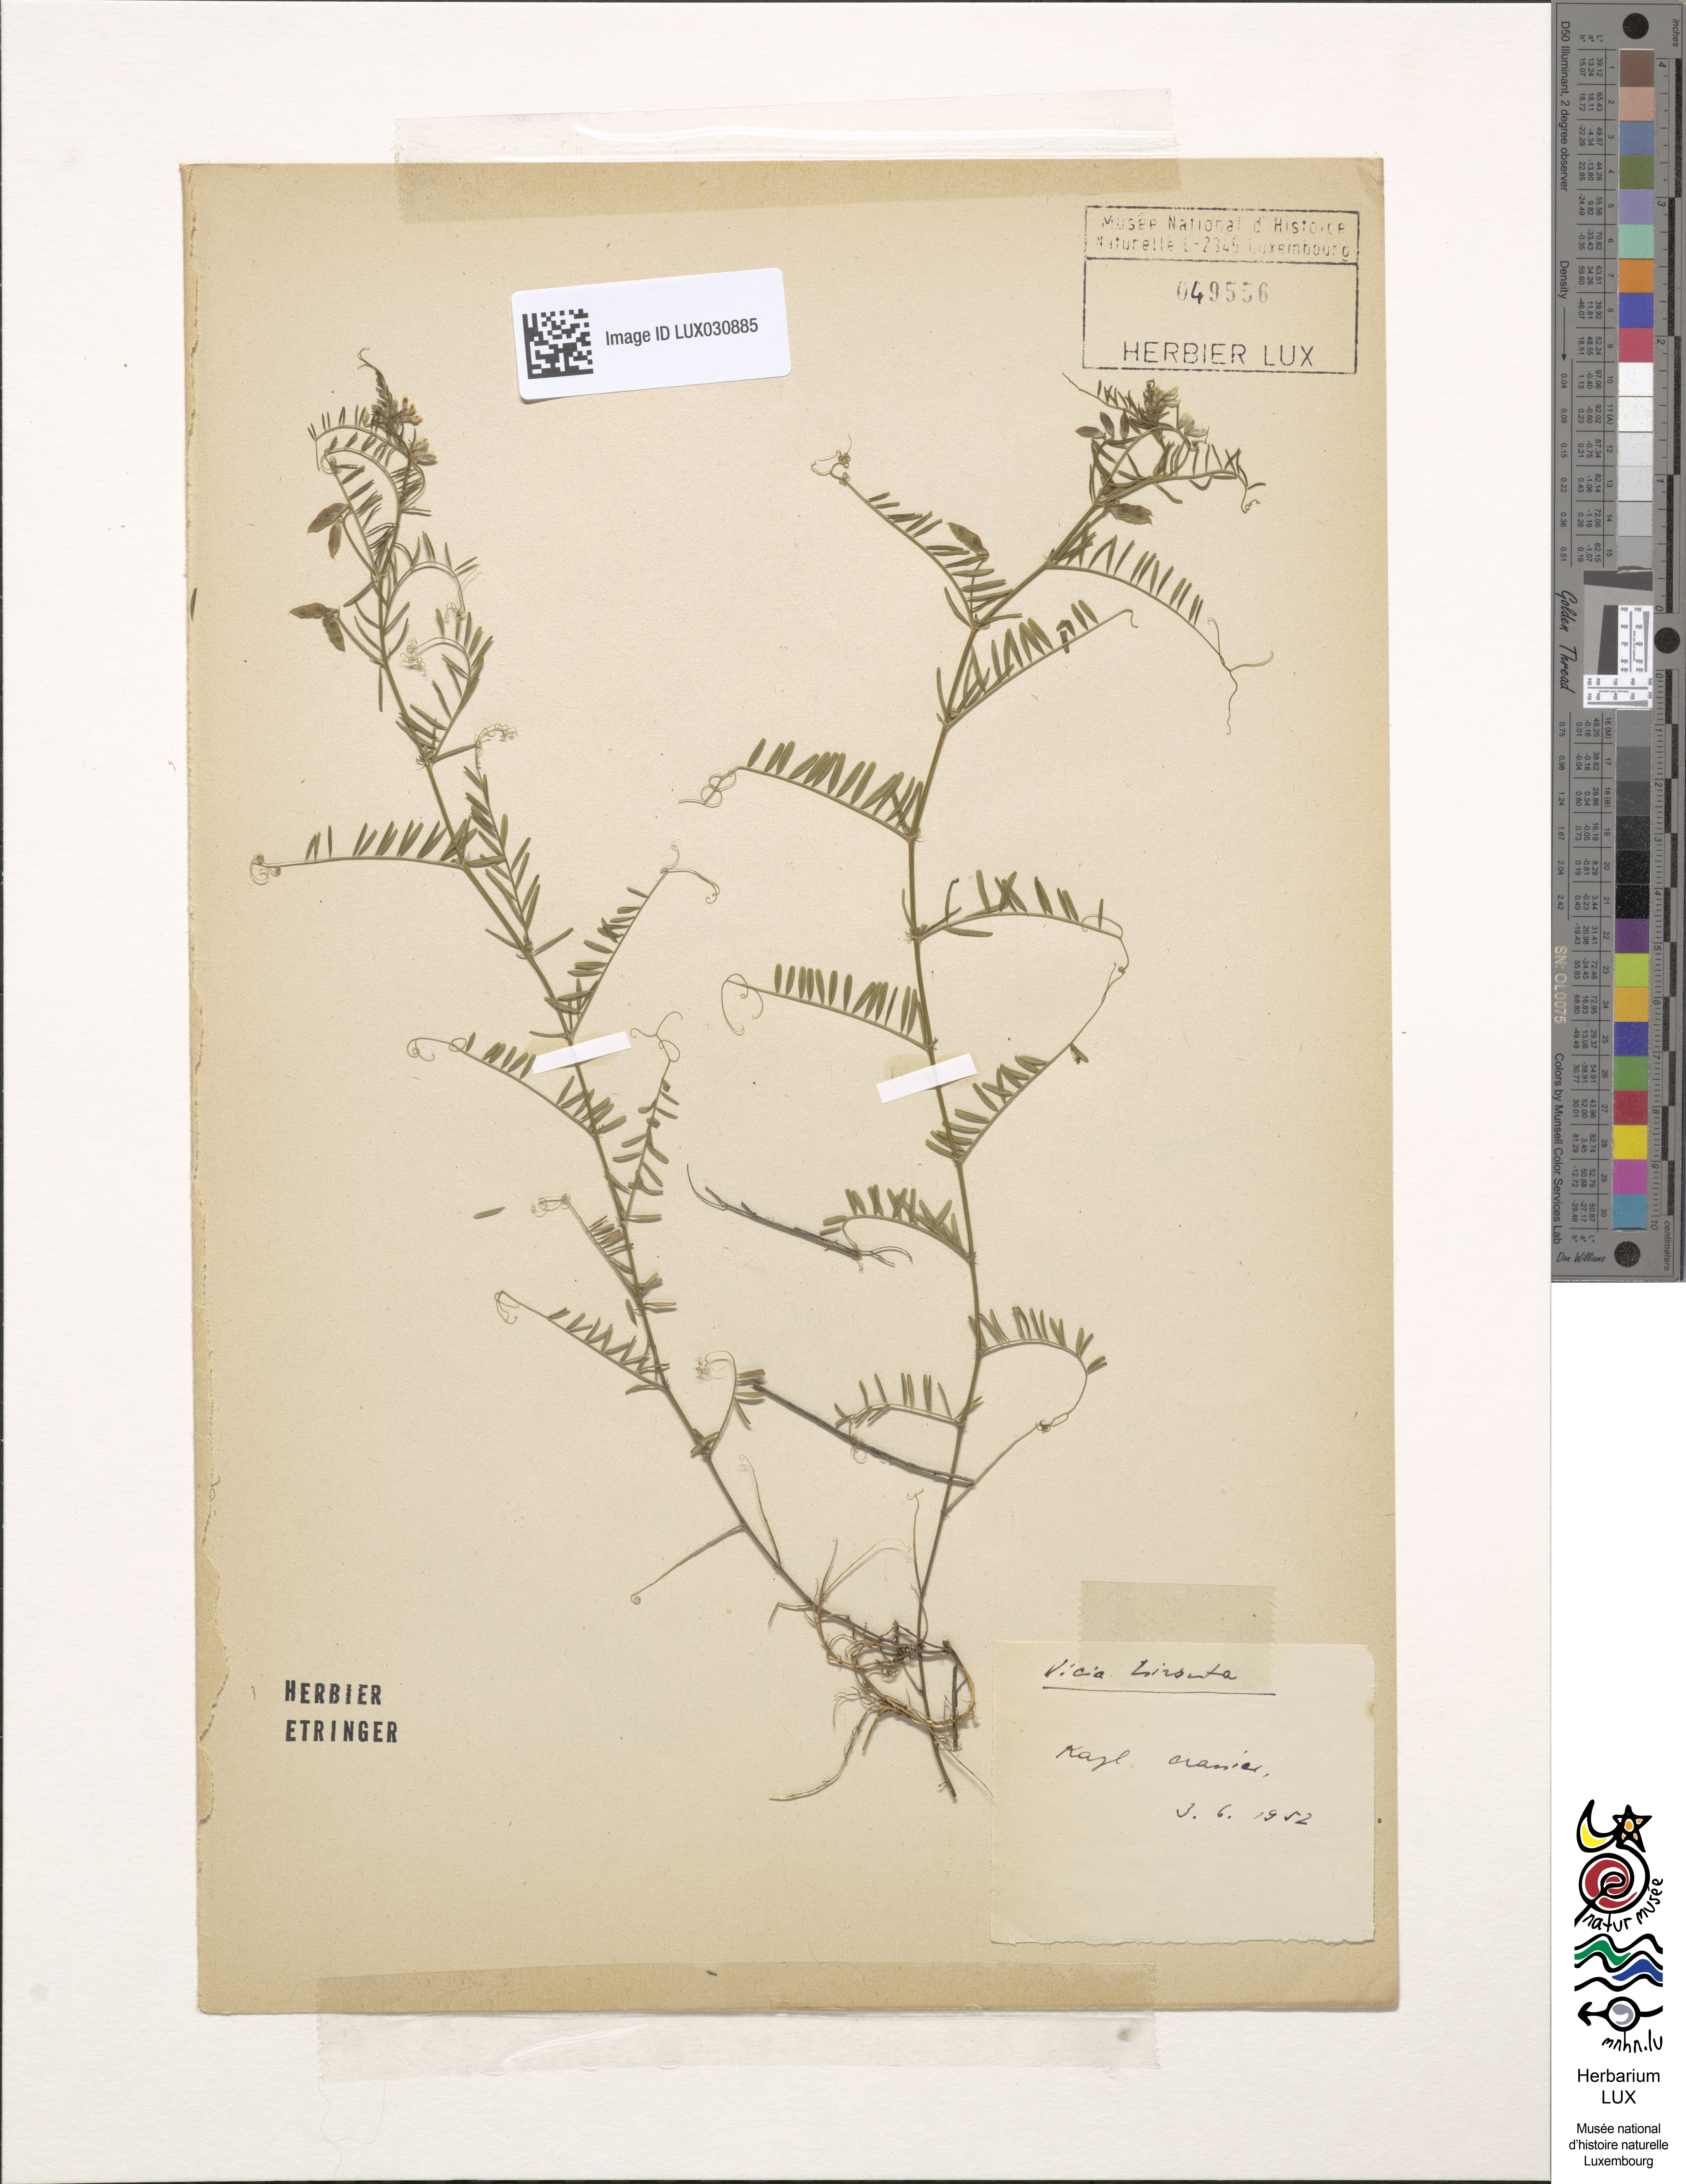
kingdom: Plantae
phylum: Tracheophyta
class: Magnoliopsida
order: Fabales
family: Fabaceae
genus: Vicia
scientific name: Vicia hirsuta
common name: Tiny vetch
